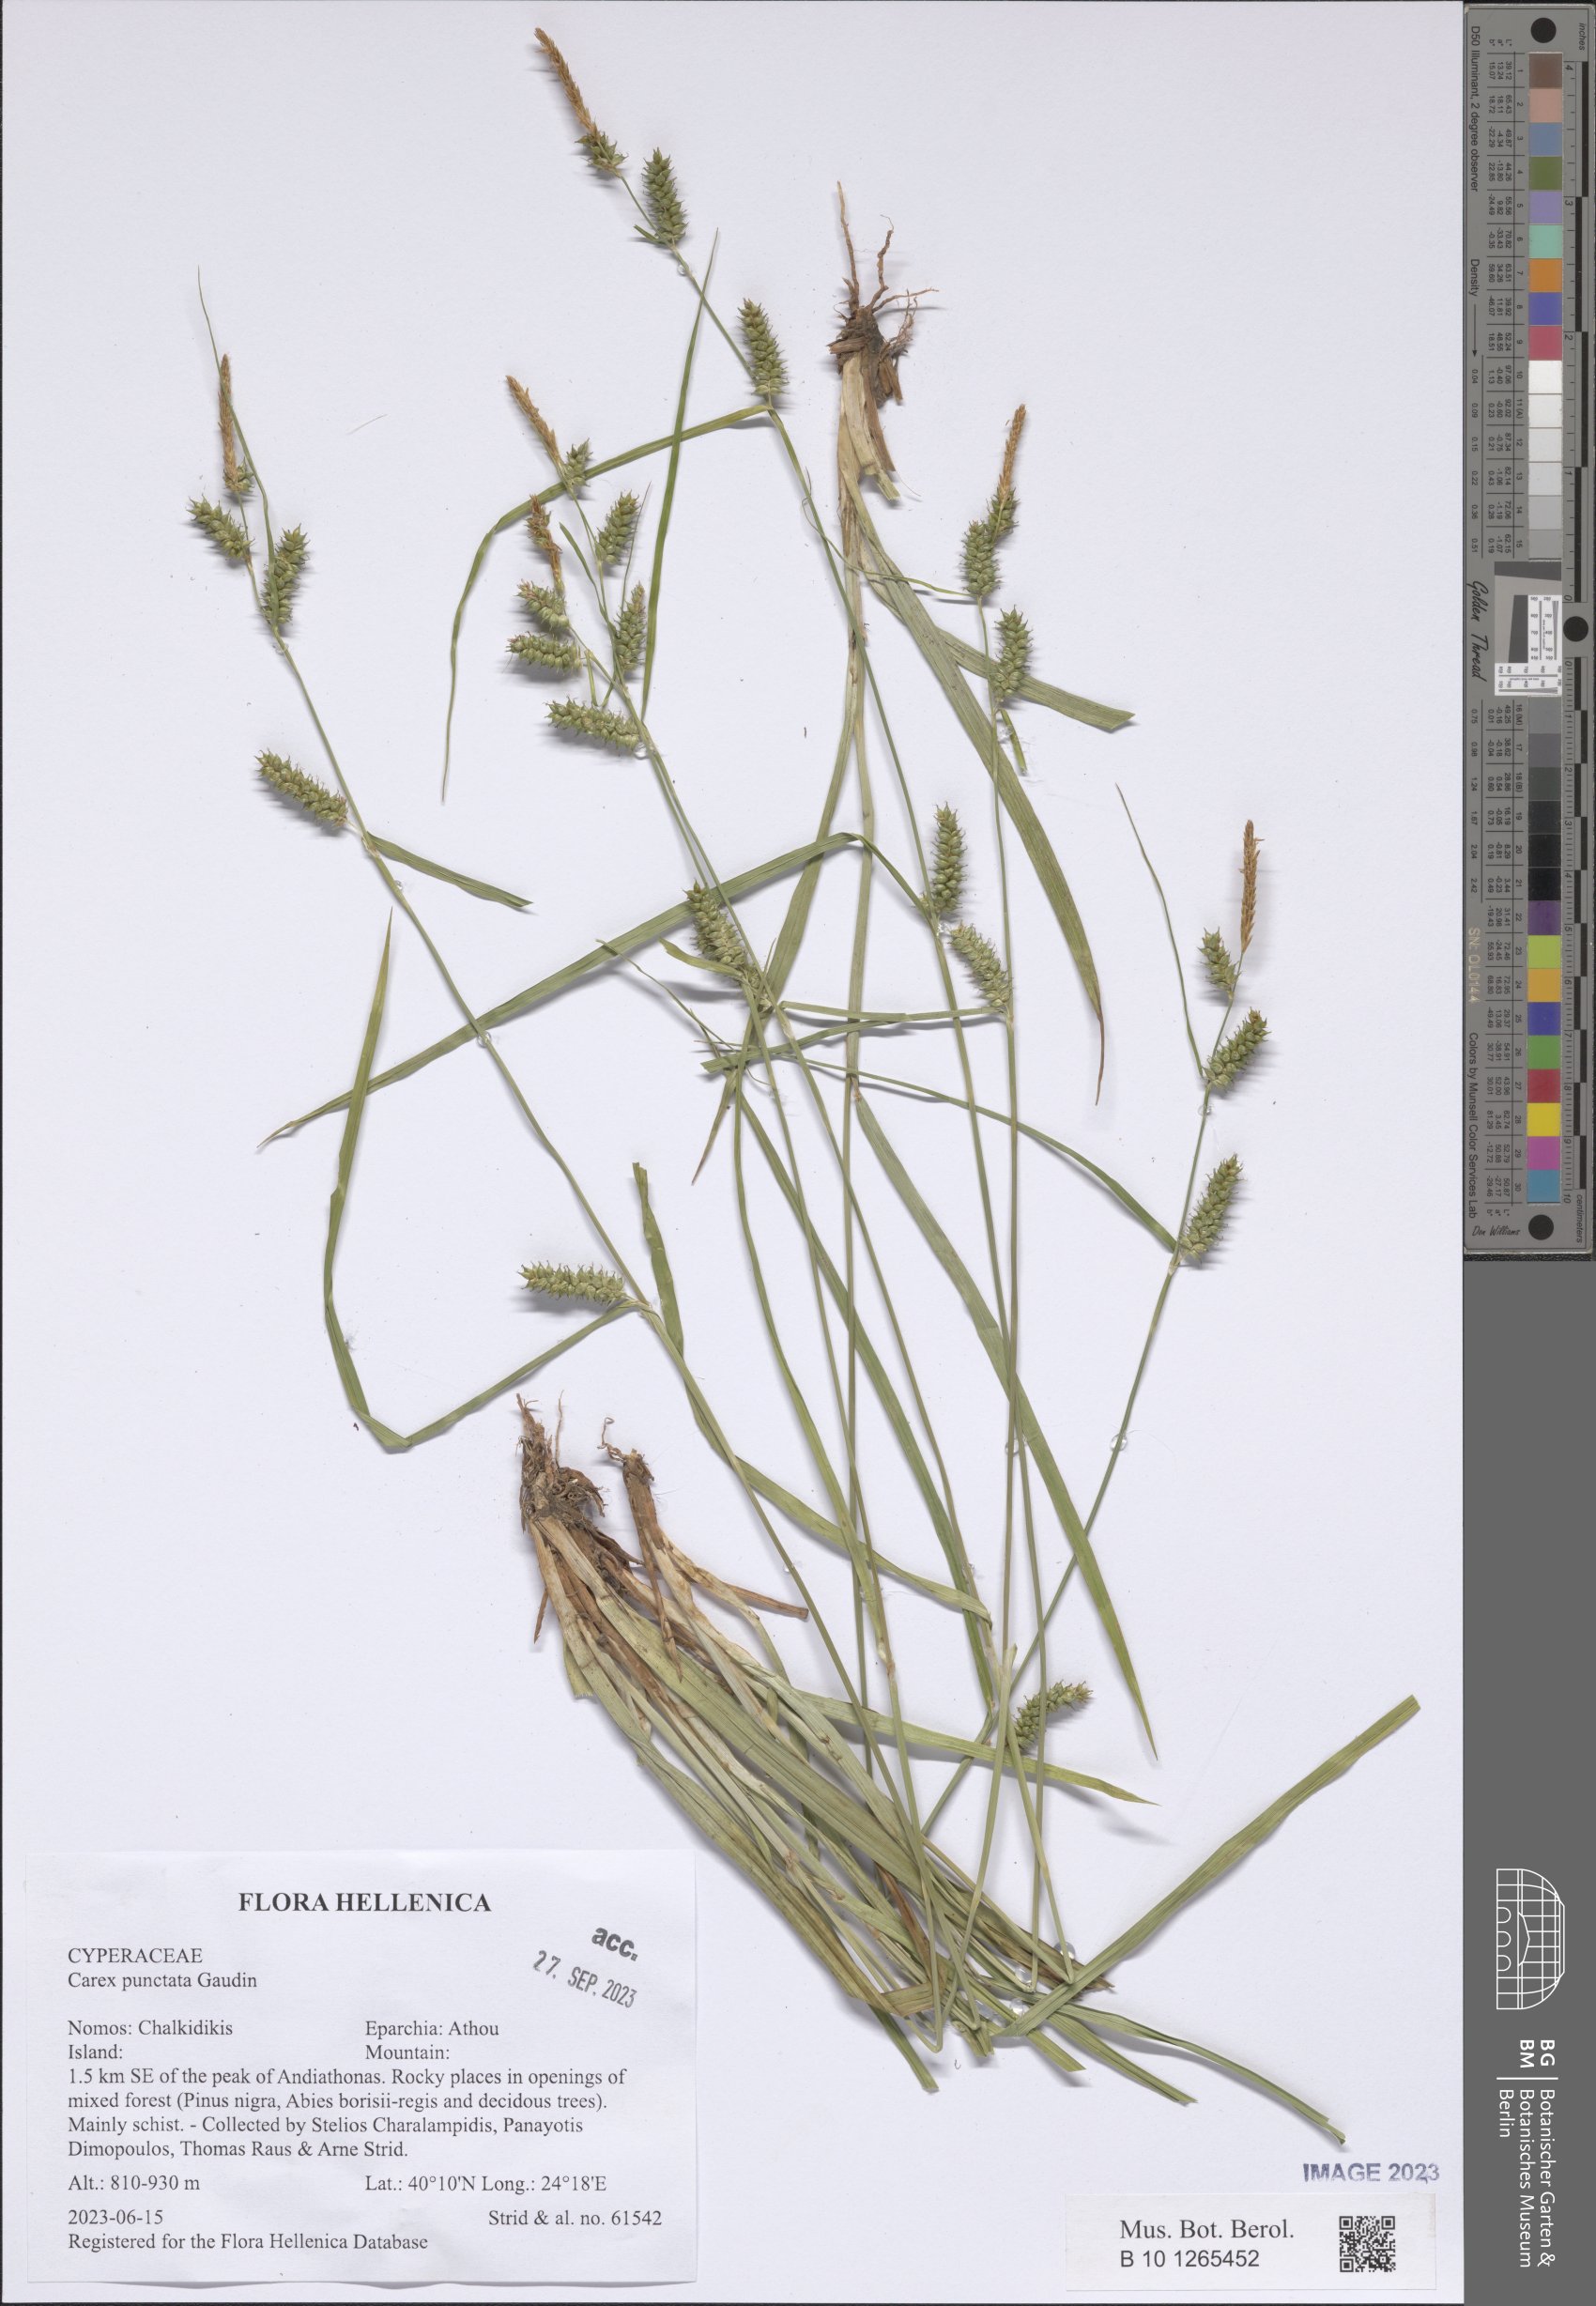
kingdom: Plantae
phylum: Tracheophyta
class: Liliopsida
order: Poales
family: Cyperaceae
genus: Carex
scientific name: Carex punctata
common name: Dotted sedge
